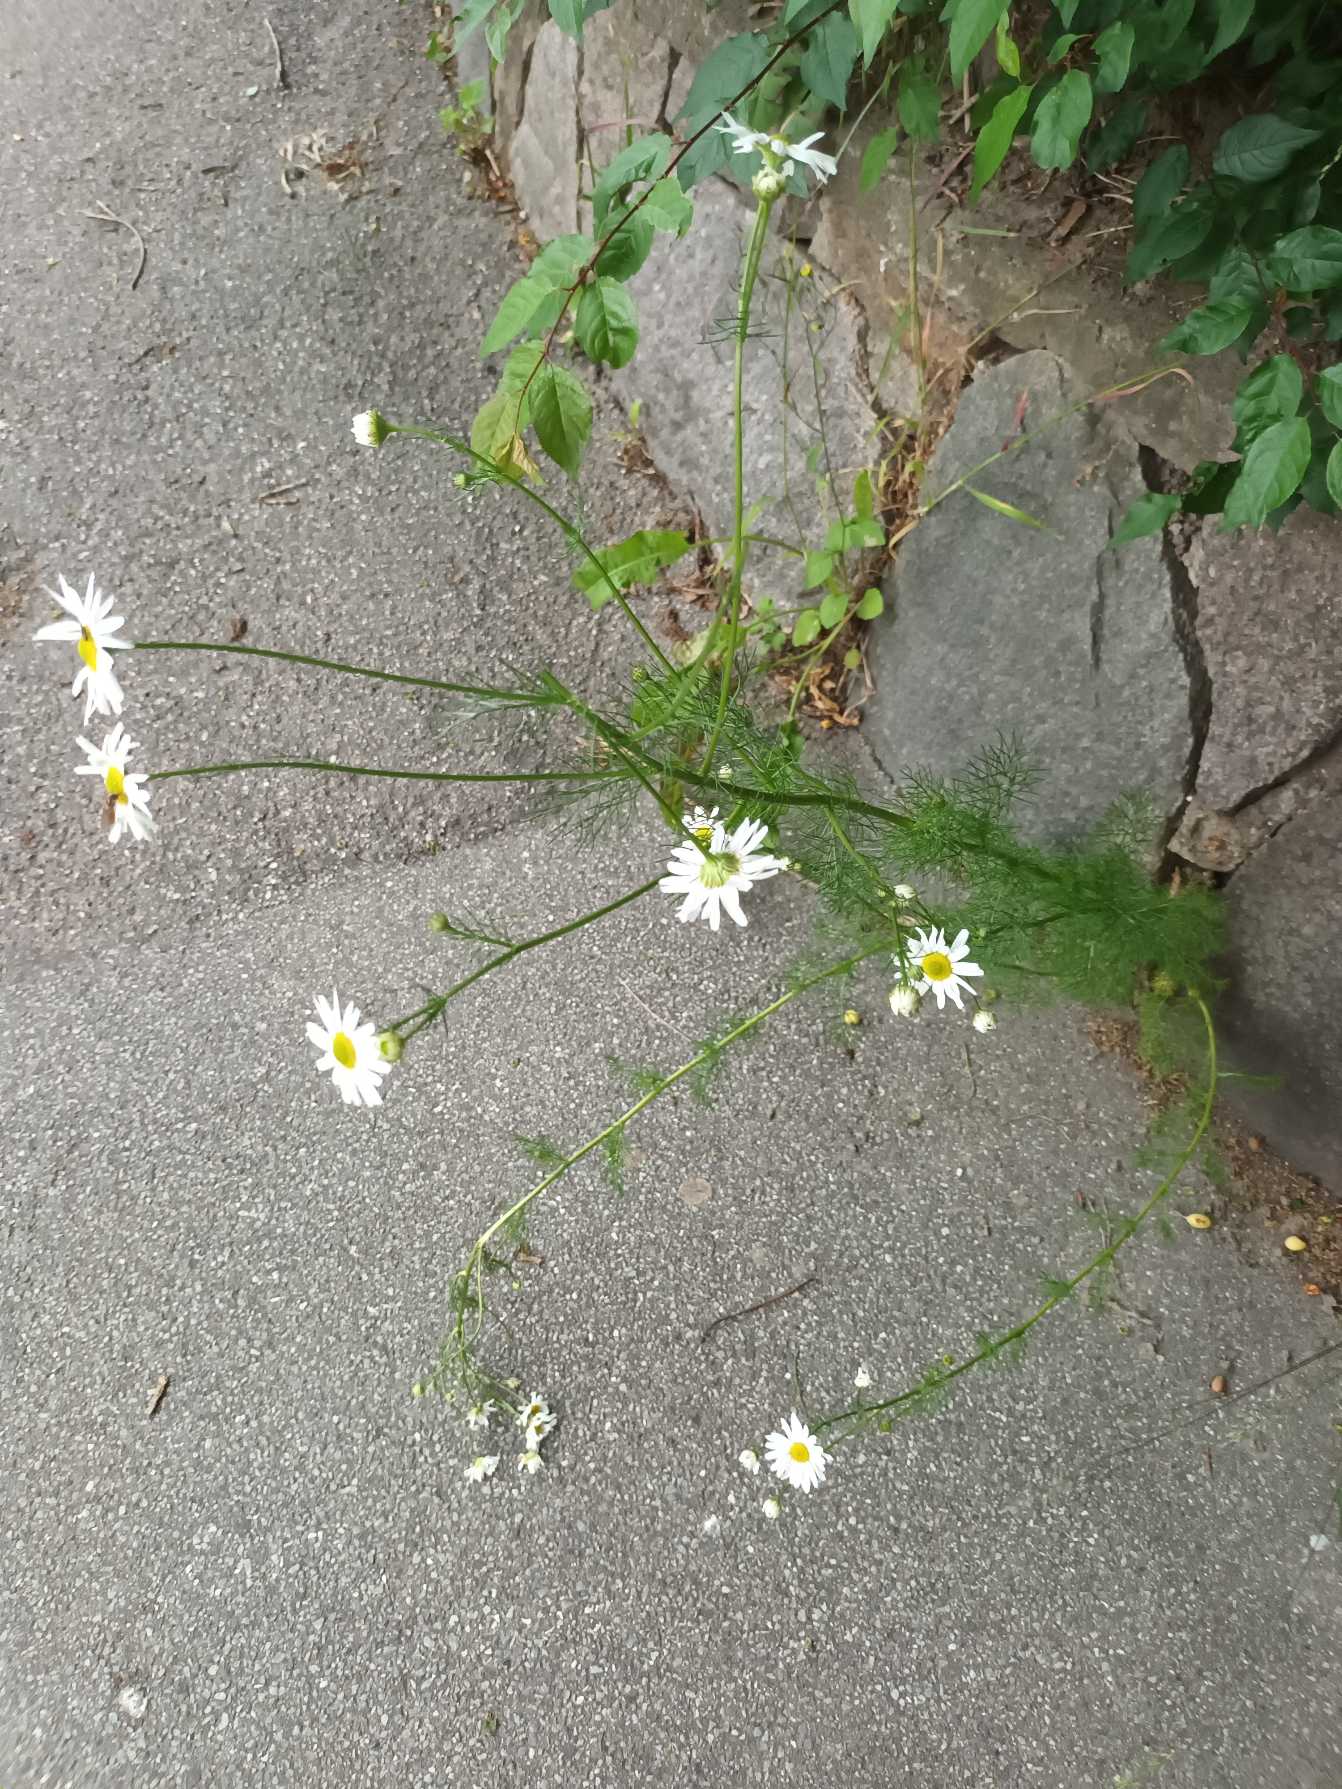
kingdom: Plantae
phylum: Tracheophyta
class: Magnoliopsida
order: Asterales
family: Asteraceae
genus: Tripleurospermum
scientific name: Tripleurospermum inodorum
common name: Lugtløs kamille
